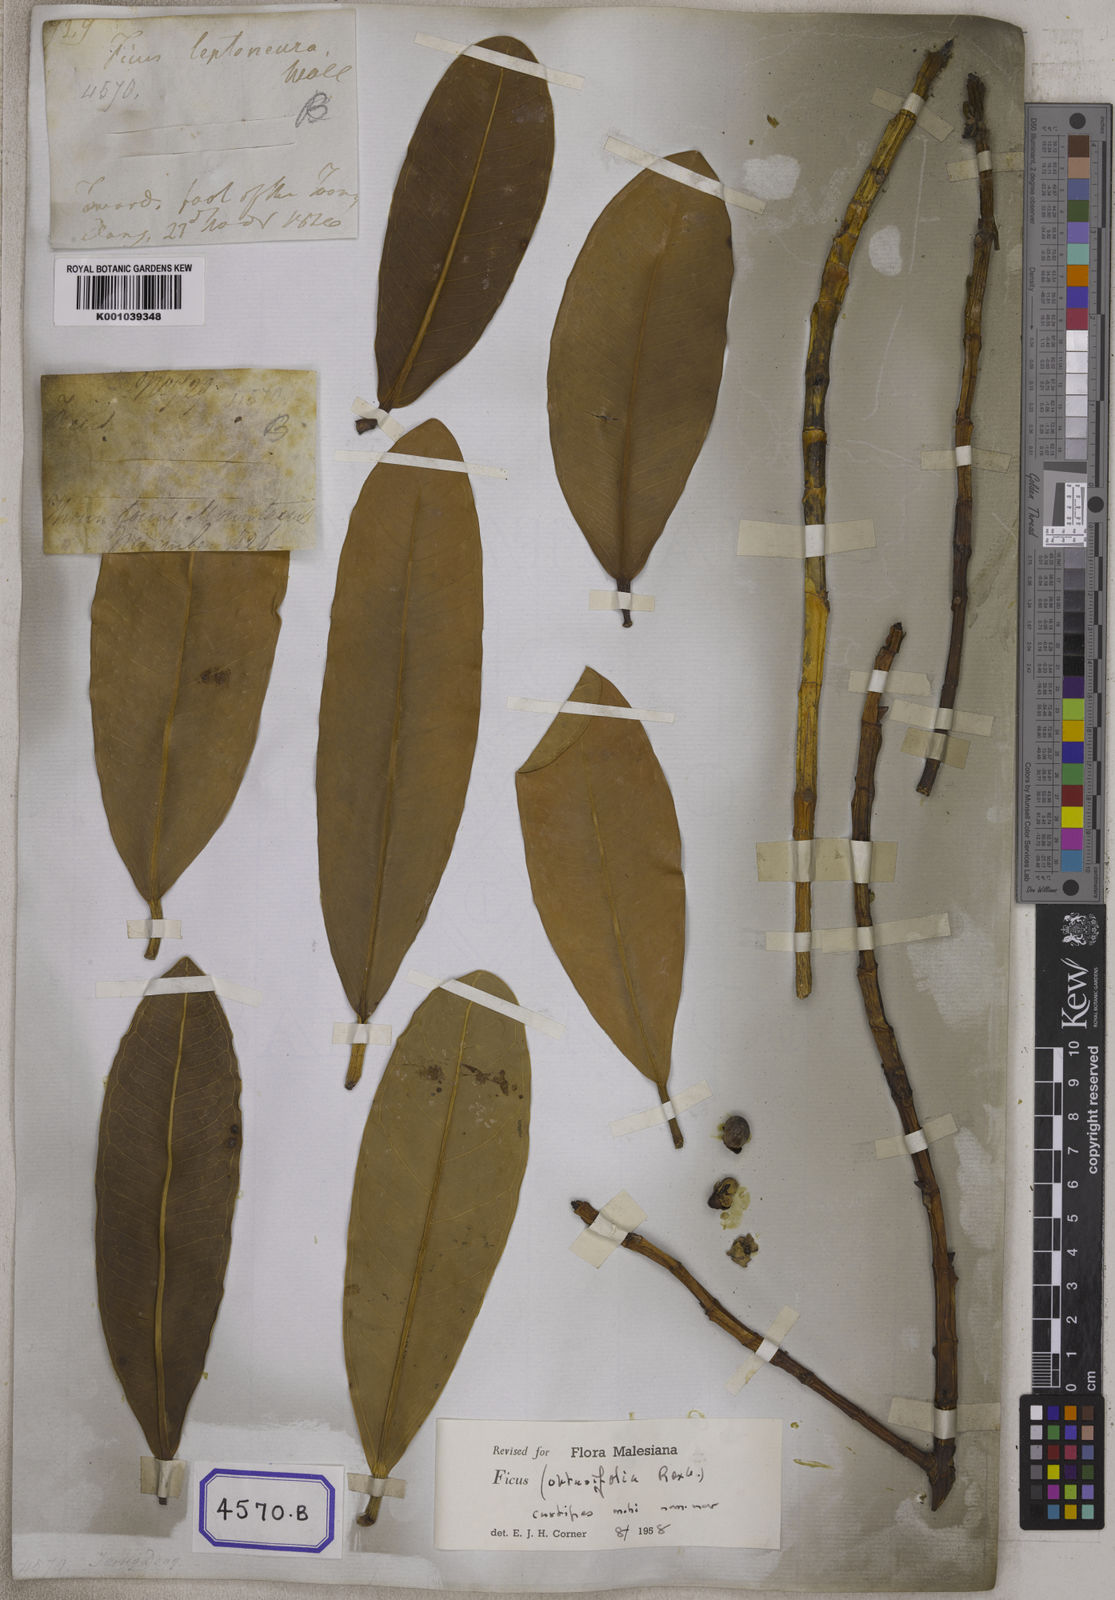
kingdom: Plantae
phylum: Tracheophyta
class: Magnoliopsida
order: Rosales
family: Moraceae
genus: Ficus
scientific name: Ficus
